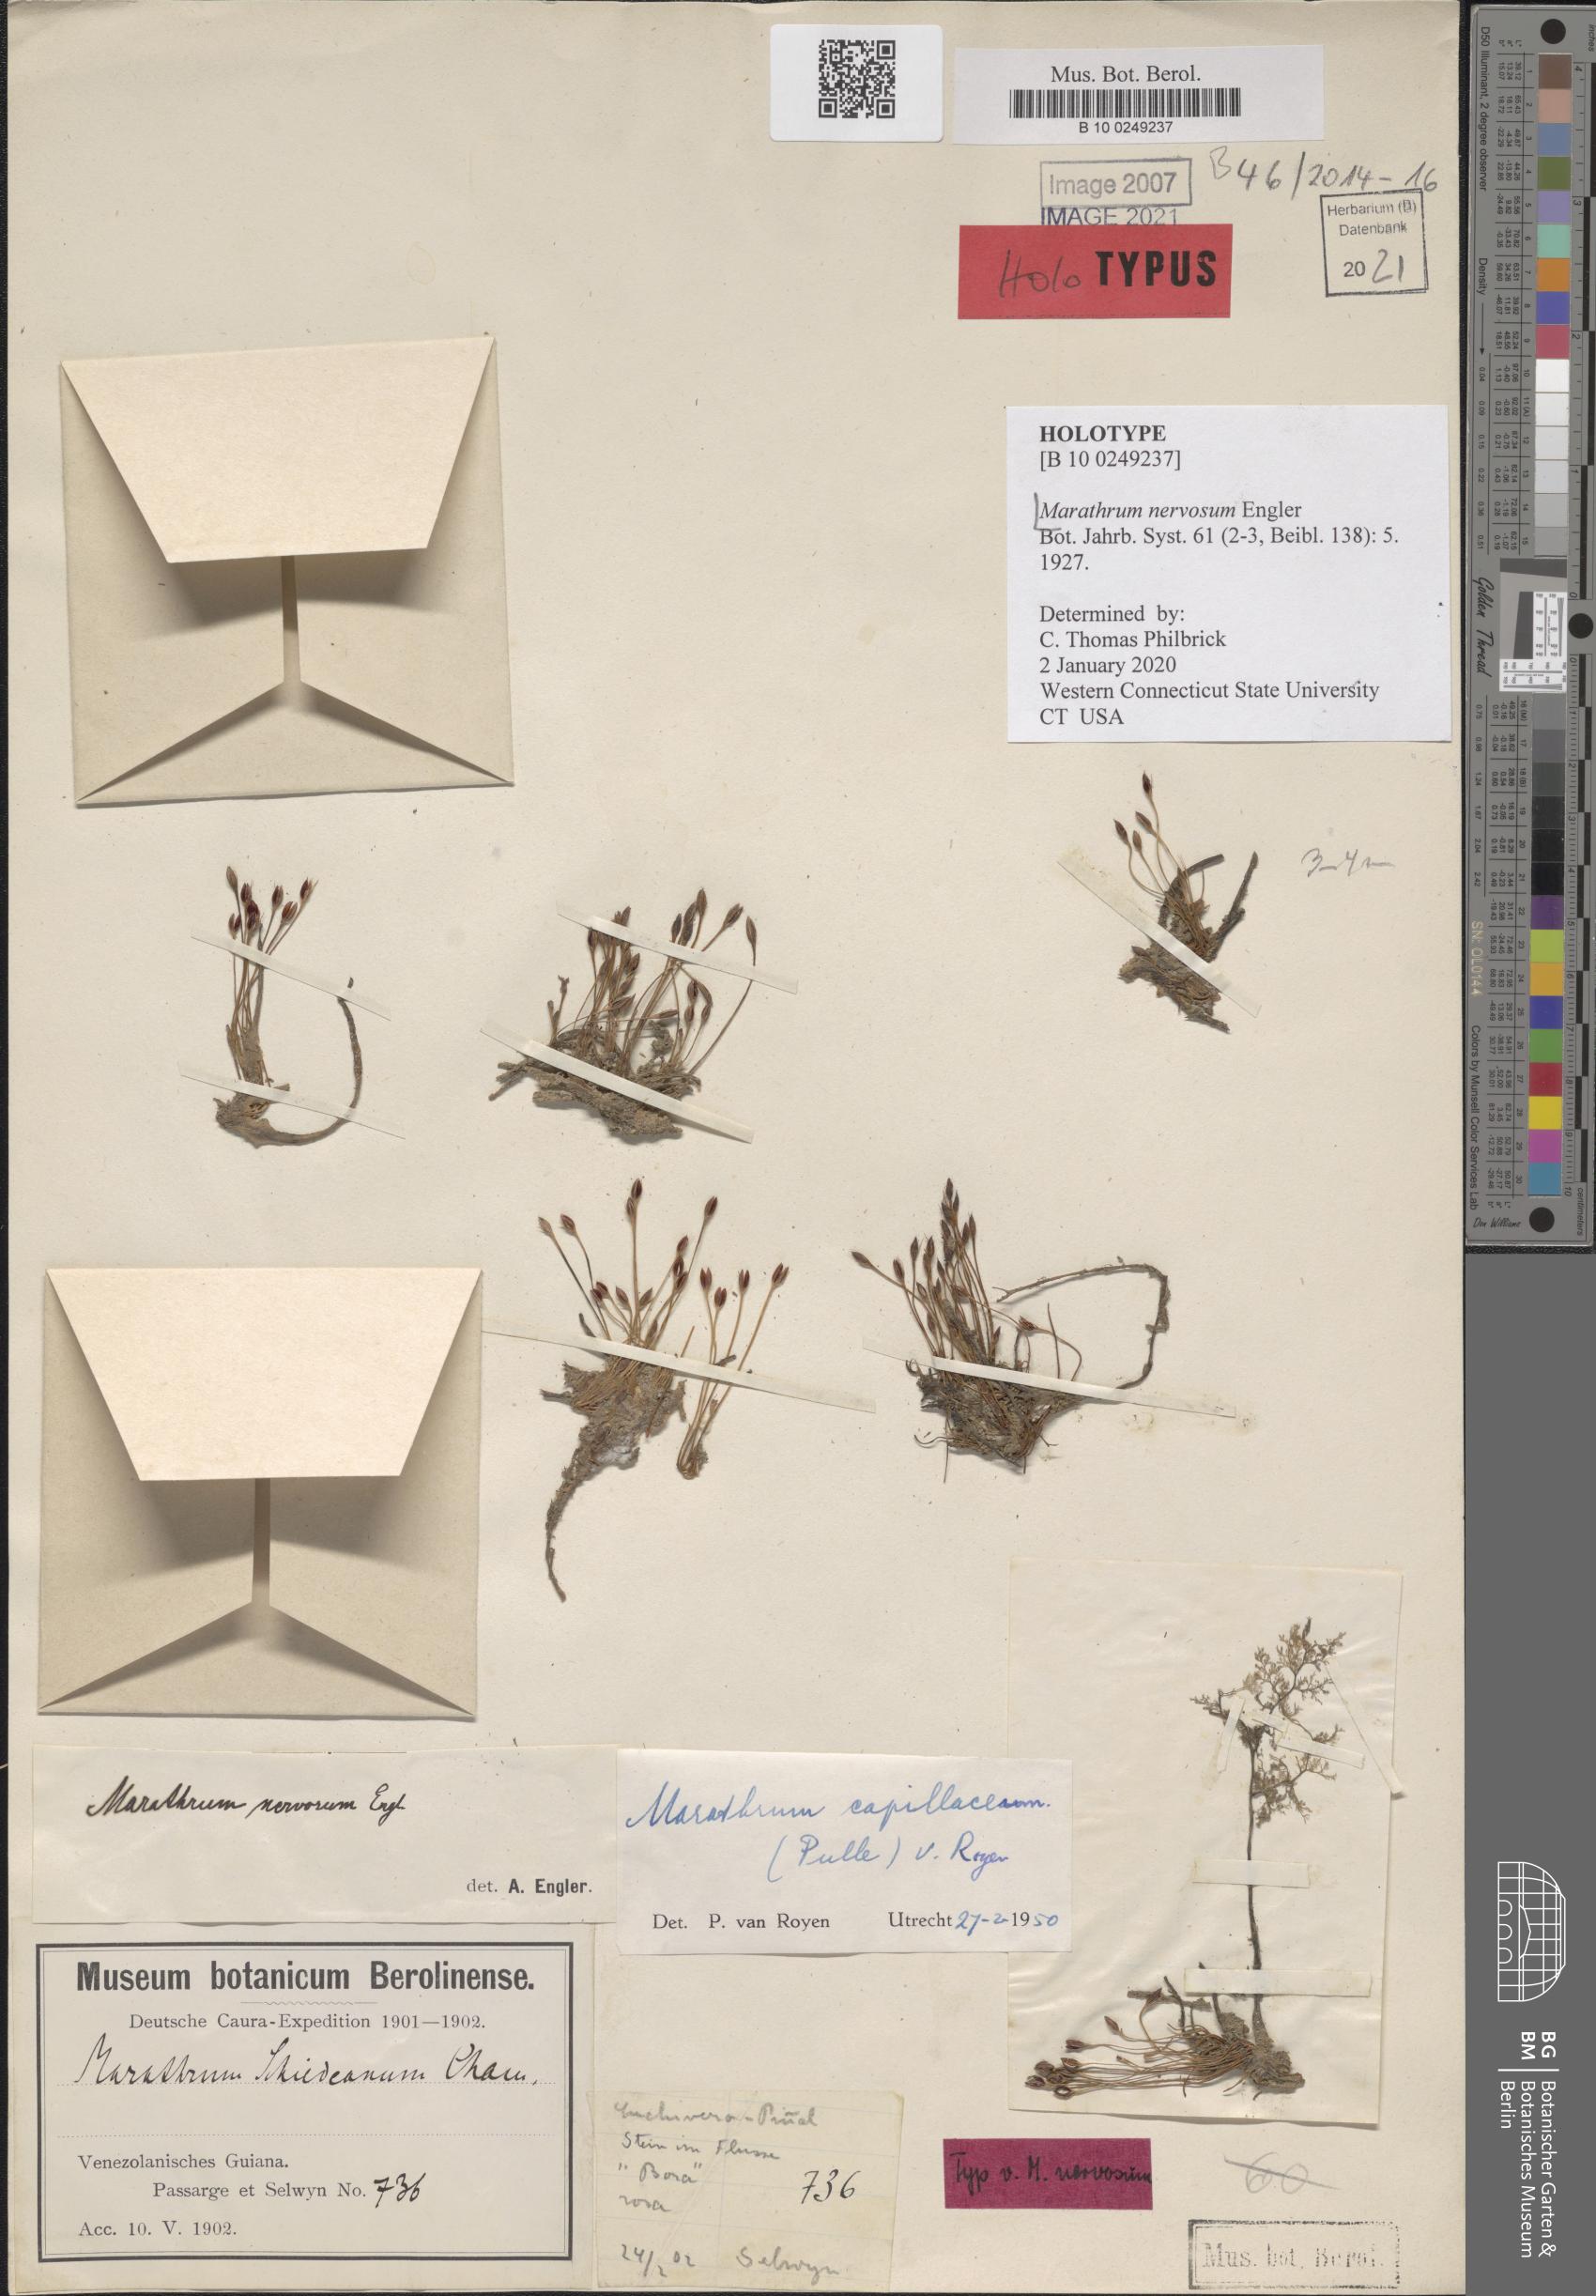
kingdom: Plantae
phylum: Tracheophyta
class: Magnoliopsida
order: Malpighiales
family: Podostemaceae
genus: Marathrum
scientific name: Marathrum capillaceum
